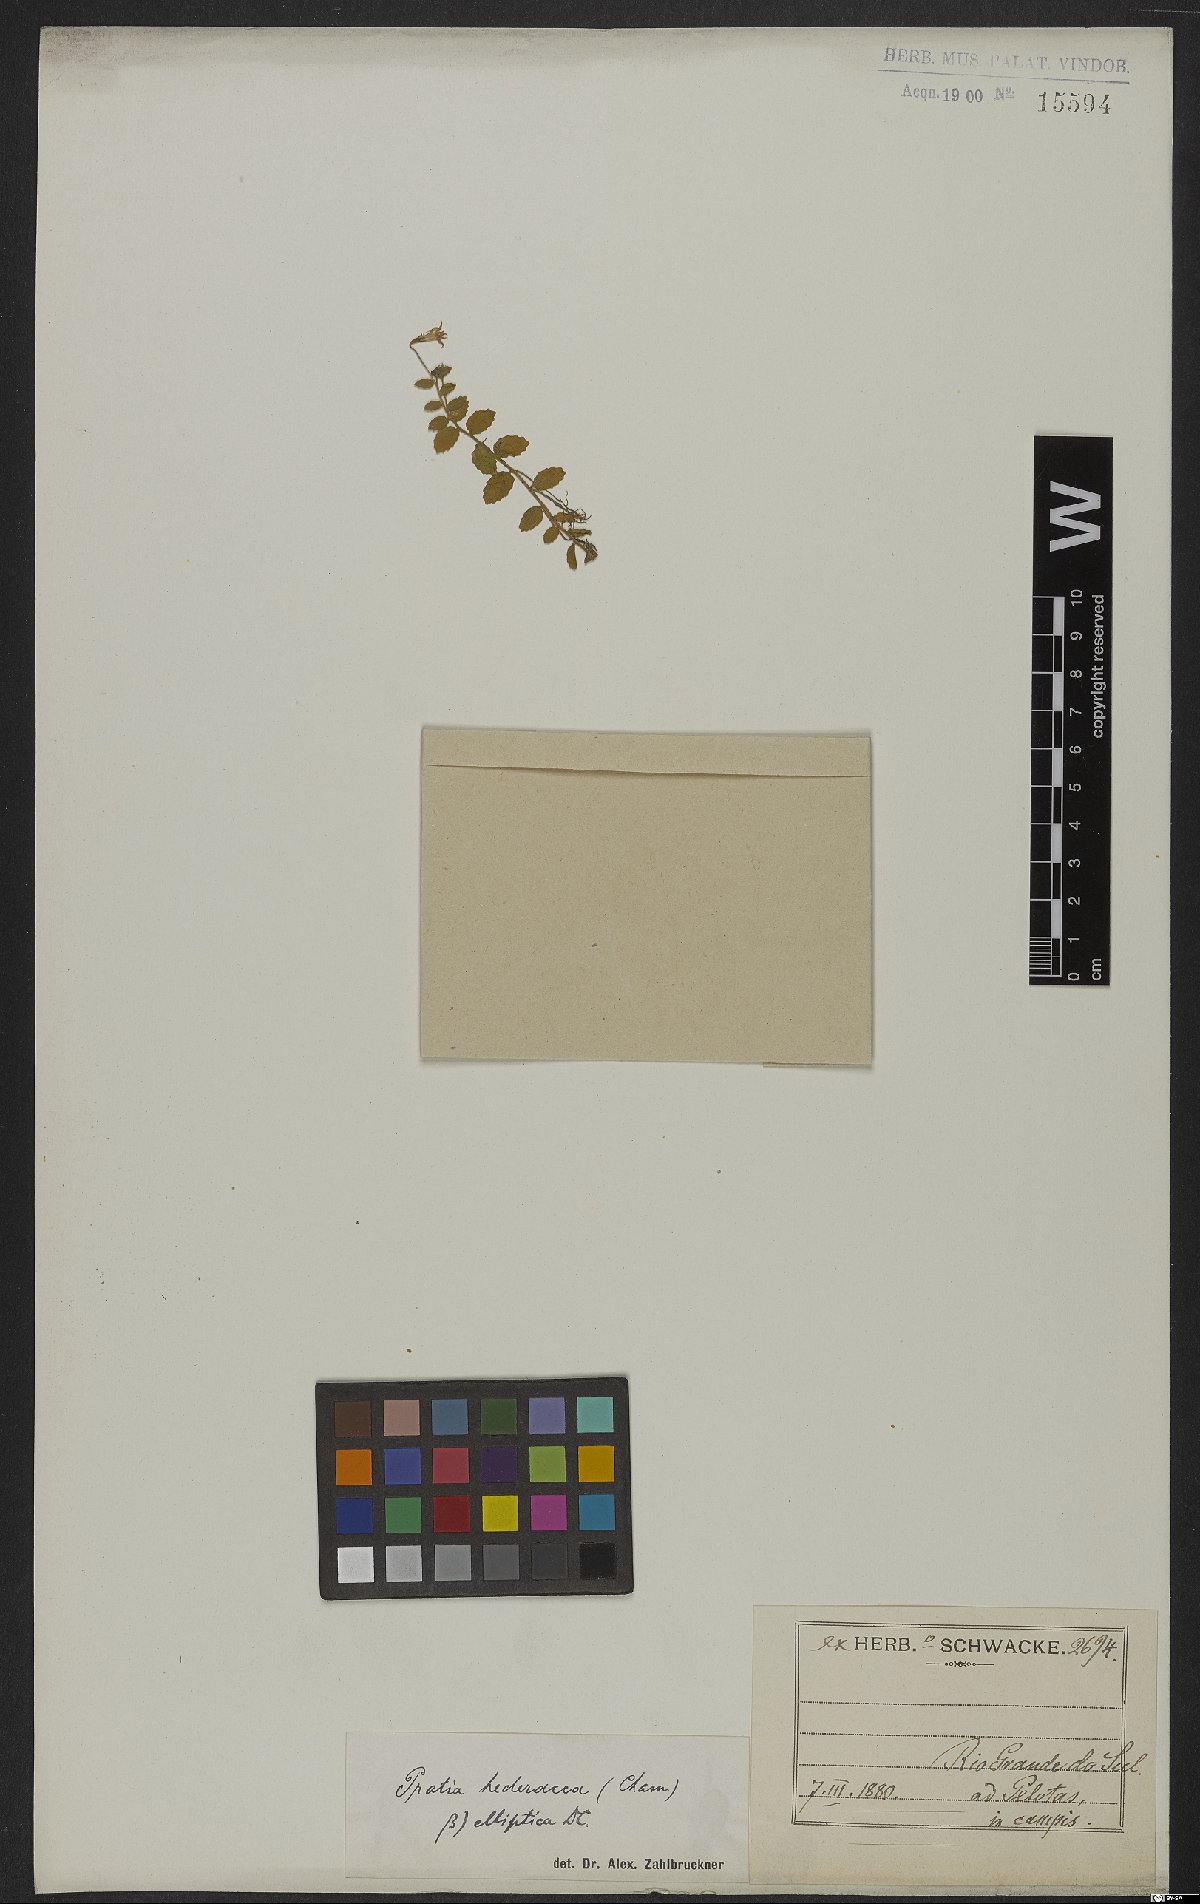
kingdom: Plantae
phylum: Tracheophyta
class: Magnoliopsida
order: Asterales
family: Campanulaceae
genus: Lobelia
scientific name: Lobelia hederacea
